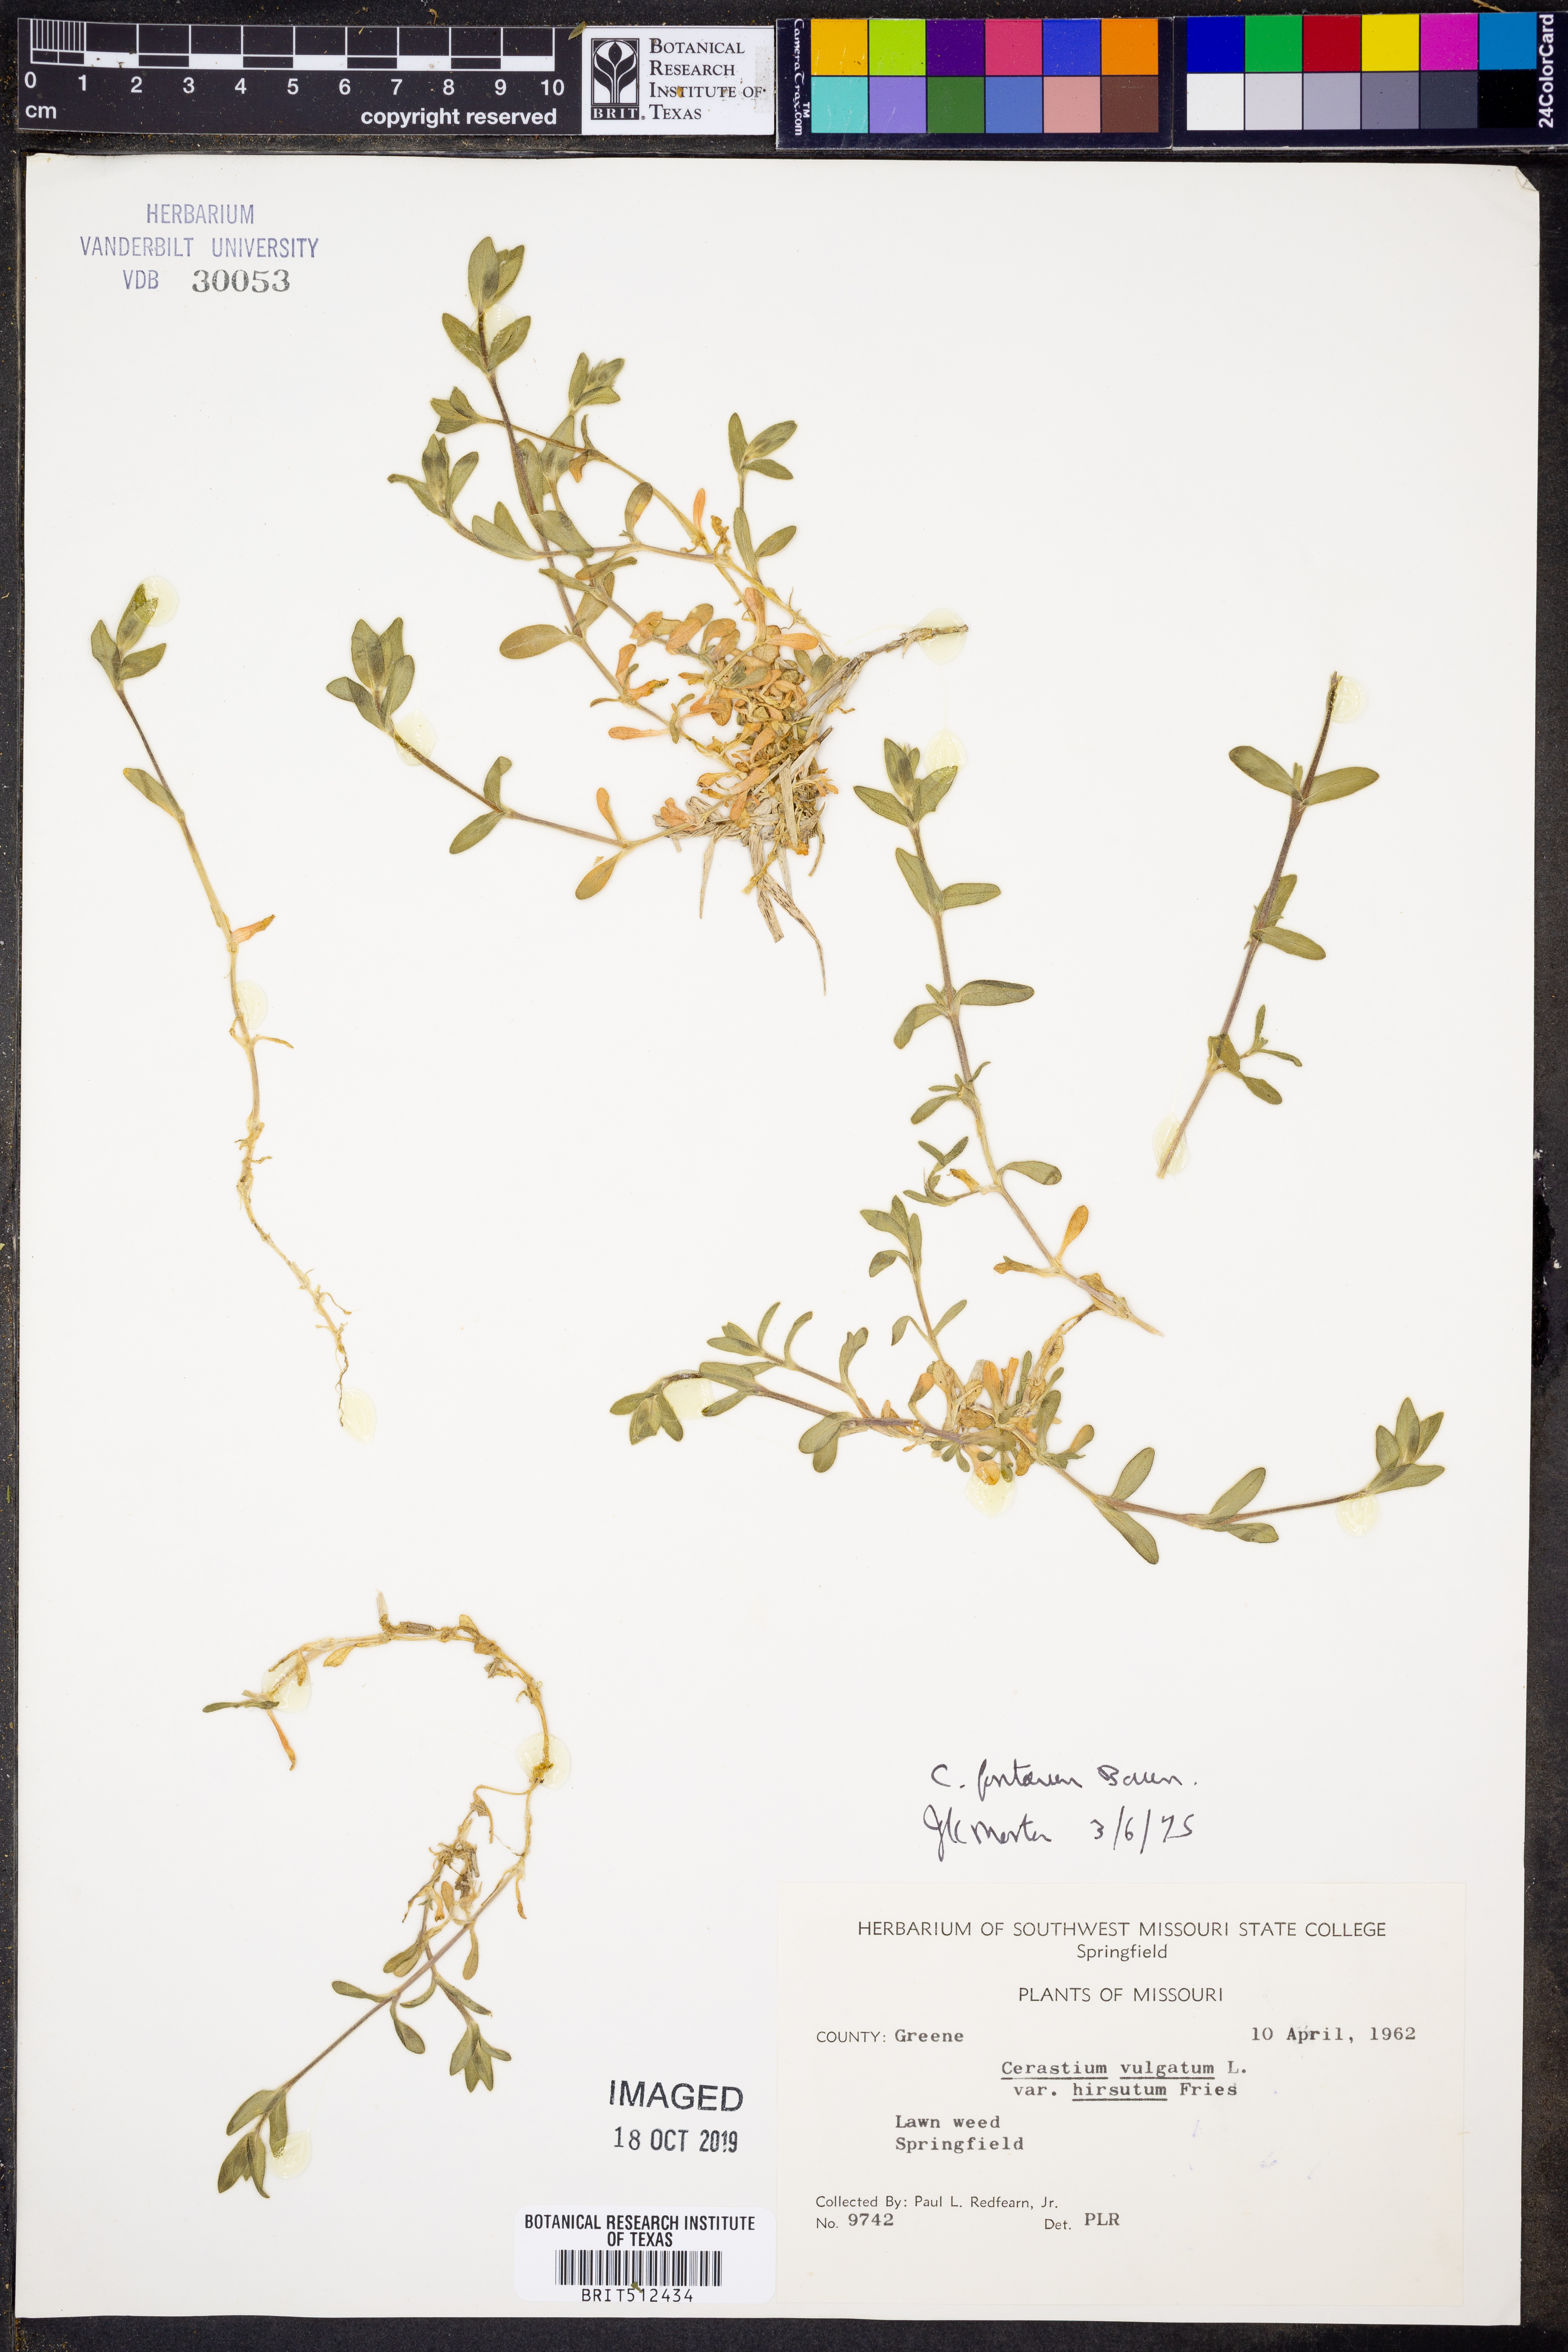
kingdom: Plantae
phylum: Tracheophyta
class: Magnoliopsida
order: Caryophyllales
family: Caryophyllaceae
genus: Cerastium
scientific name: Cerastium fontanum
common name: Common mouse-ear
